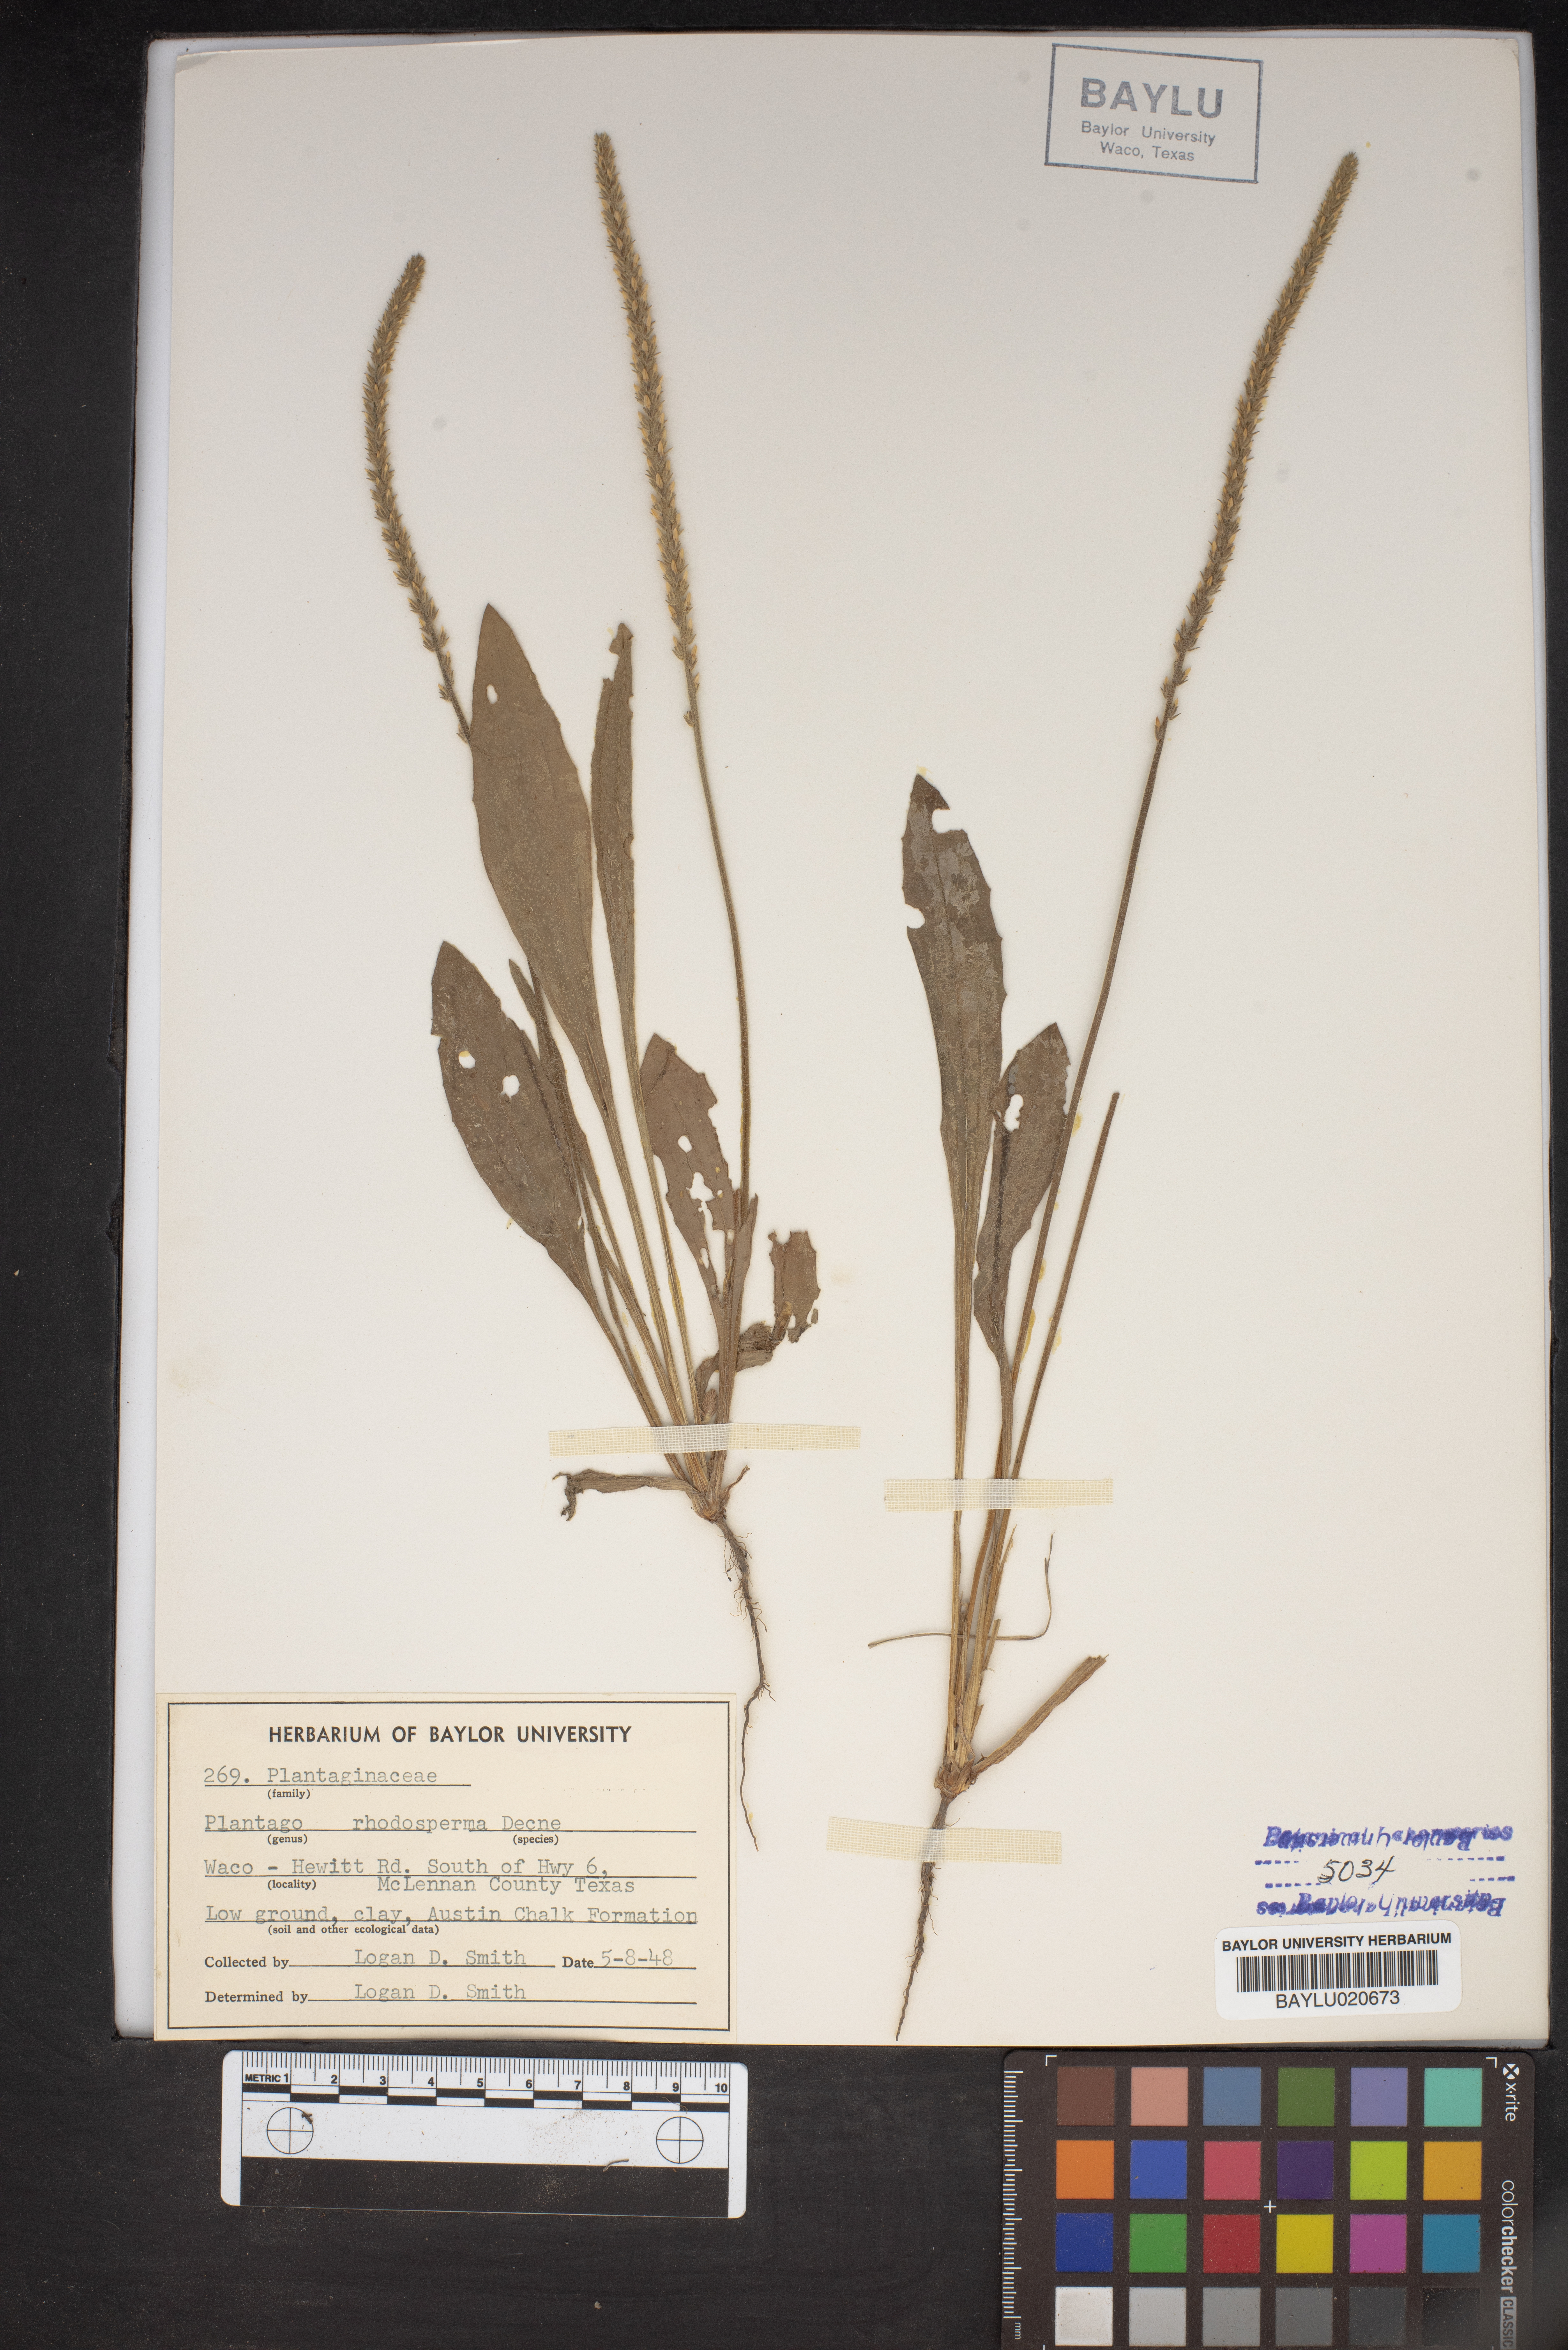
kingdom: Plantae
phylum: Tracheophyta
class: Magnoliopsida
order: Lamiales
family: Plantaginaceae
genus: Plantago
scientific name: Plantago rhodosperma
